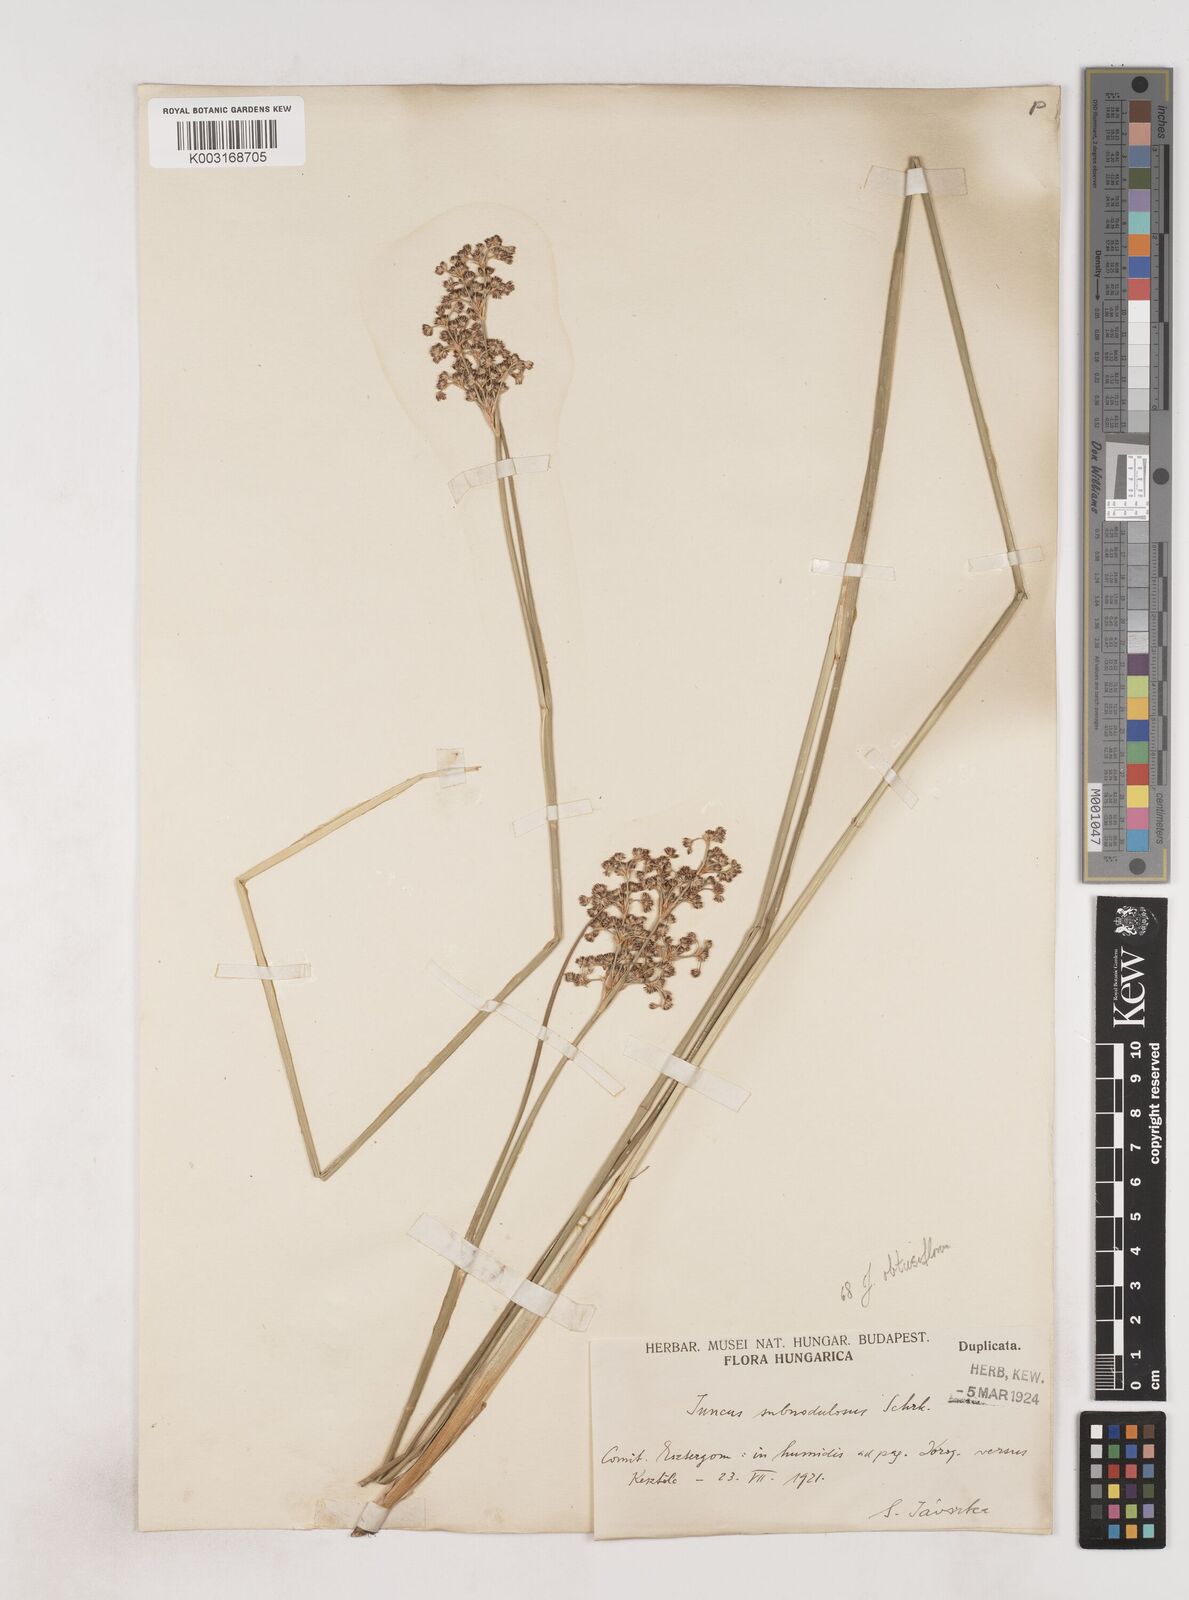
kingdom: Plantae
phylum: Tracheophyta
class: Liliopsida
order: Poales
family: Juncaceae
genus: Juncus
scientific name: Juncus subnodulosus
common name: Blunt-flowered rush
